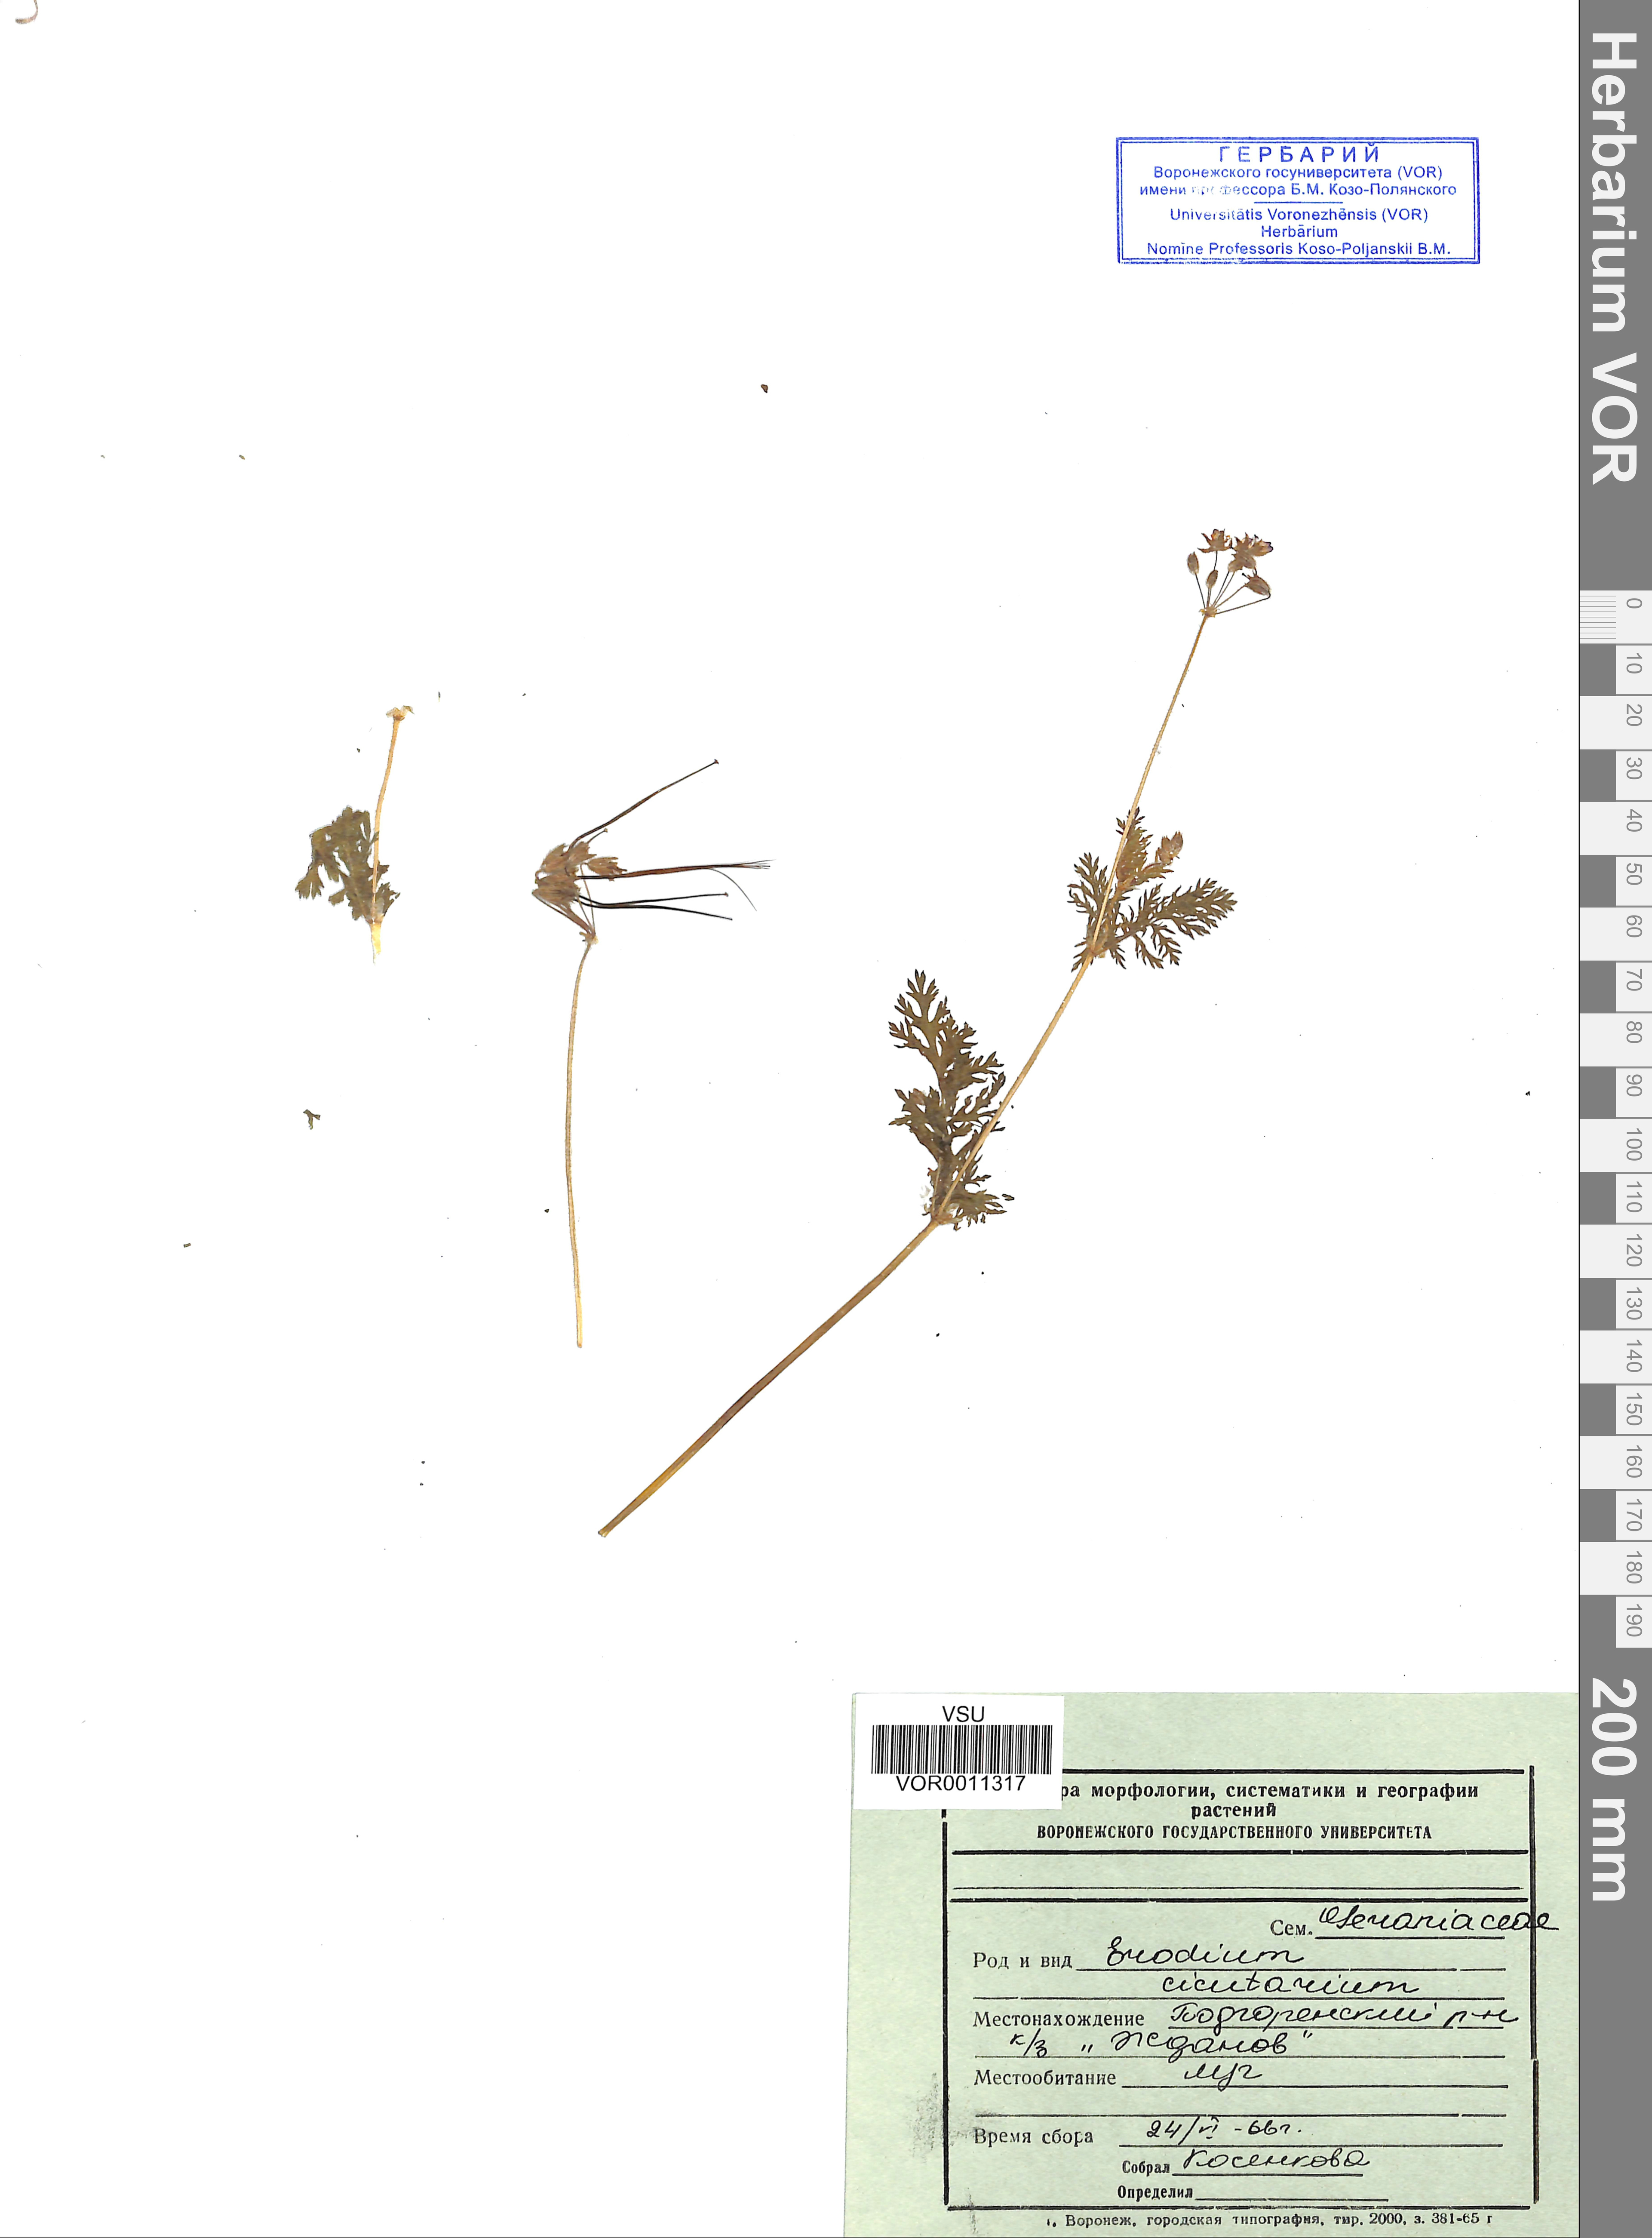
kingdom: Plantae
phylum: Tracheophyta
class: Magnoliopsida
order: Geraniales
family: Geraniaceae
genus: Erodium
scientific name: Erodium cicutarium
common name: Common stork's-bill
